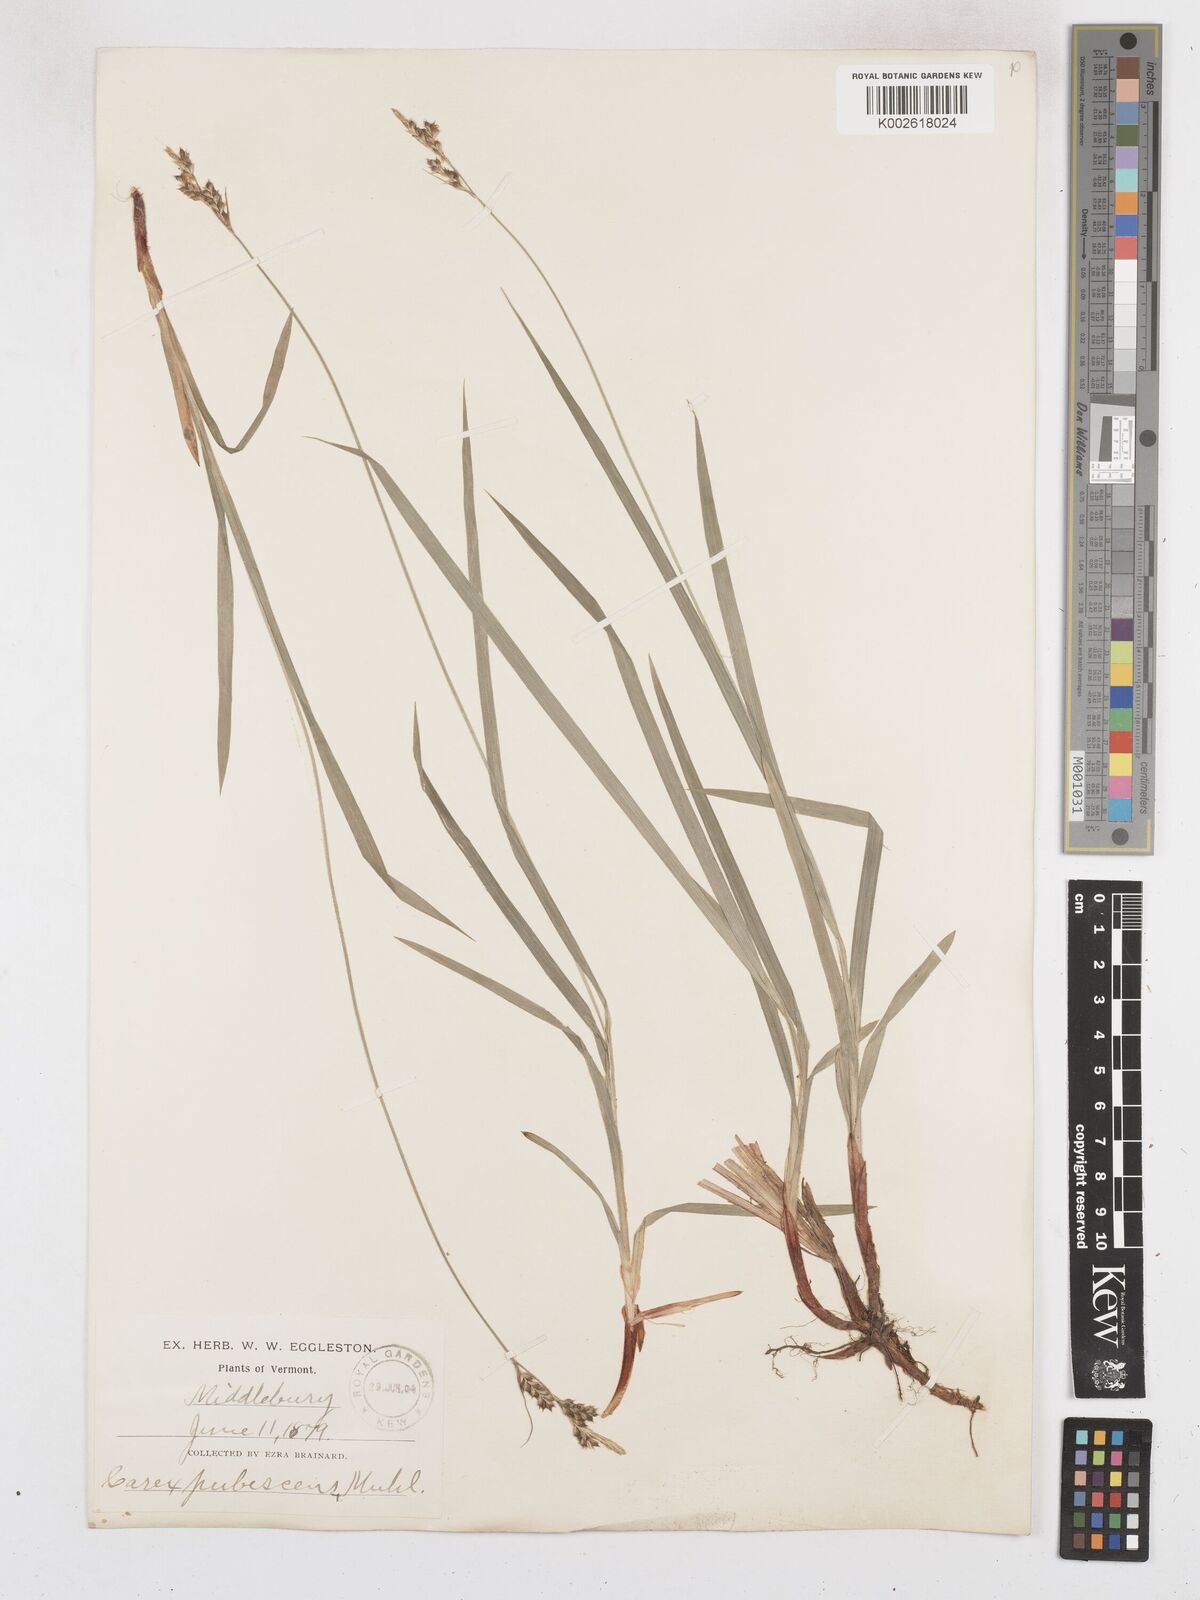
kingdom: Plantae
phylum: Tracheophyta
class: Liliopsida
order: Poales
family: Cyperaceae
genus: Carex
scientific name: Carex hirtifolia
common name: Hairy sedge
